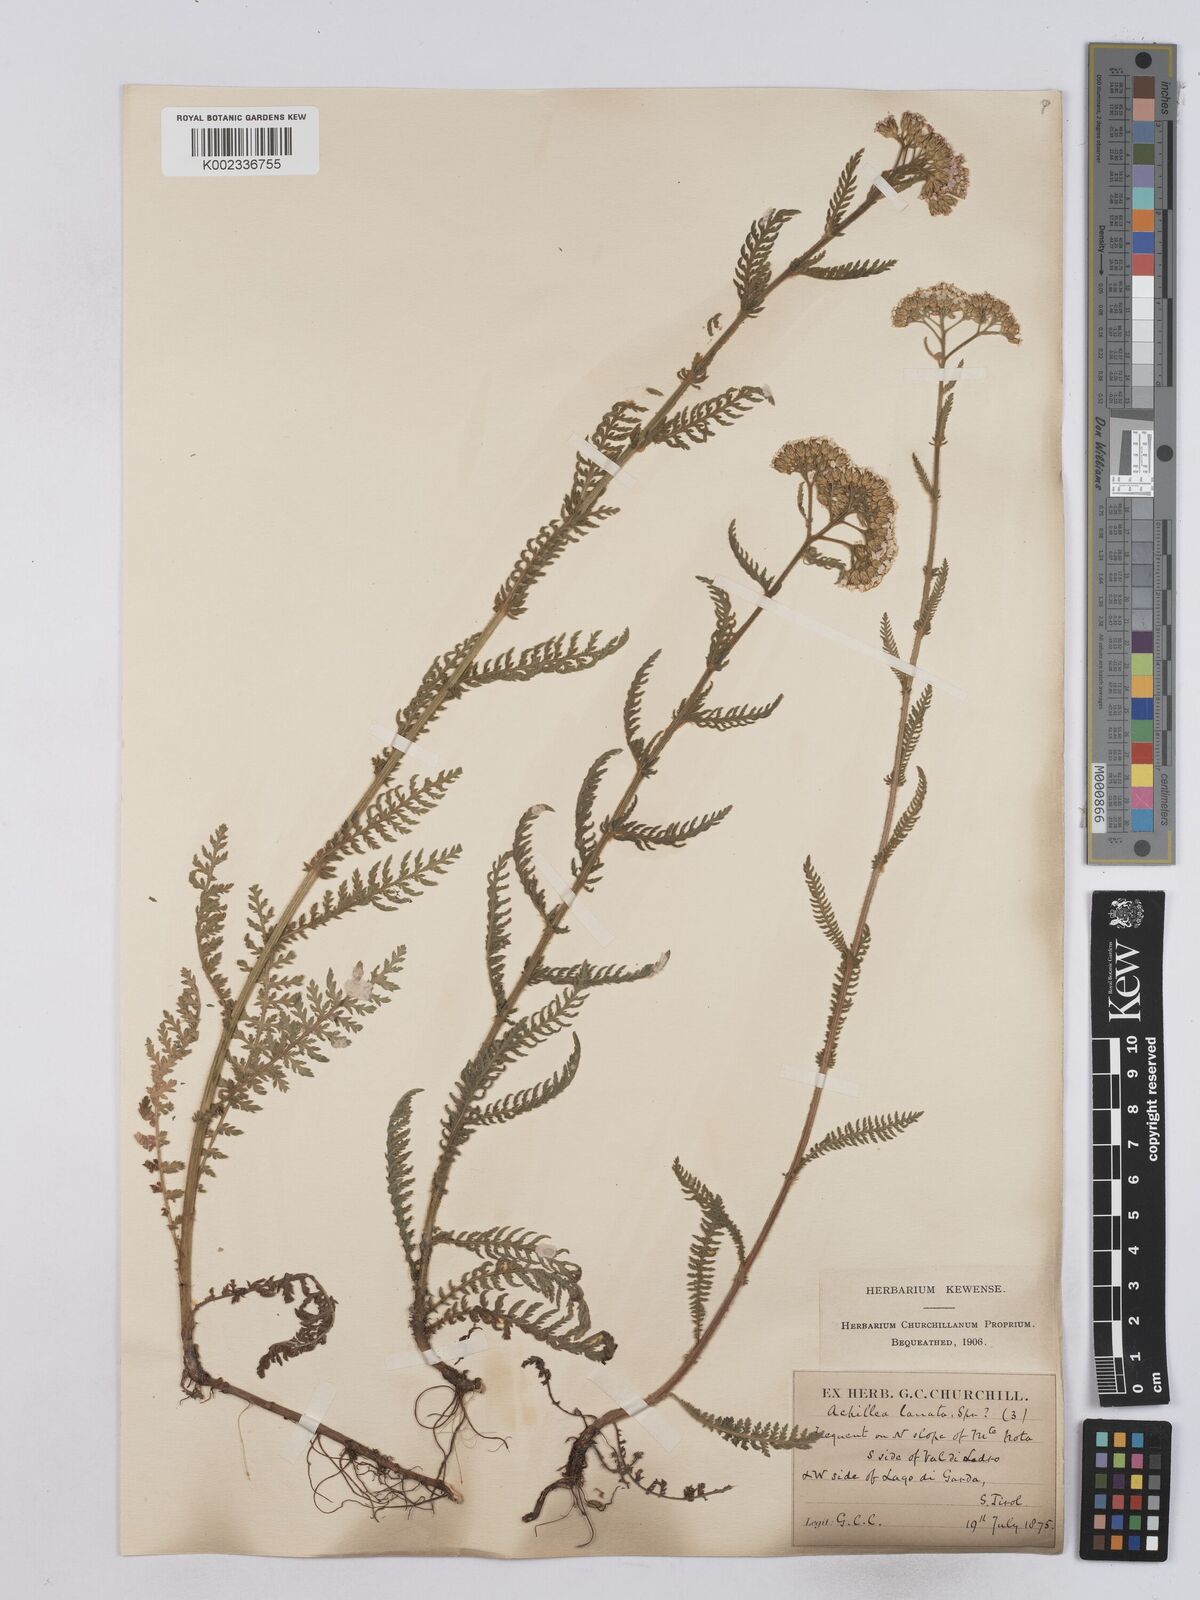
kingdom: Plantae
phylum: Tracheophyta
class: Magnoliopsida
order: Asterales
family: Asteraceae
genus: Achillea
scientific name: Achillea setacea
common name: Bristly yarrow
